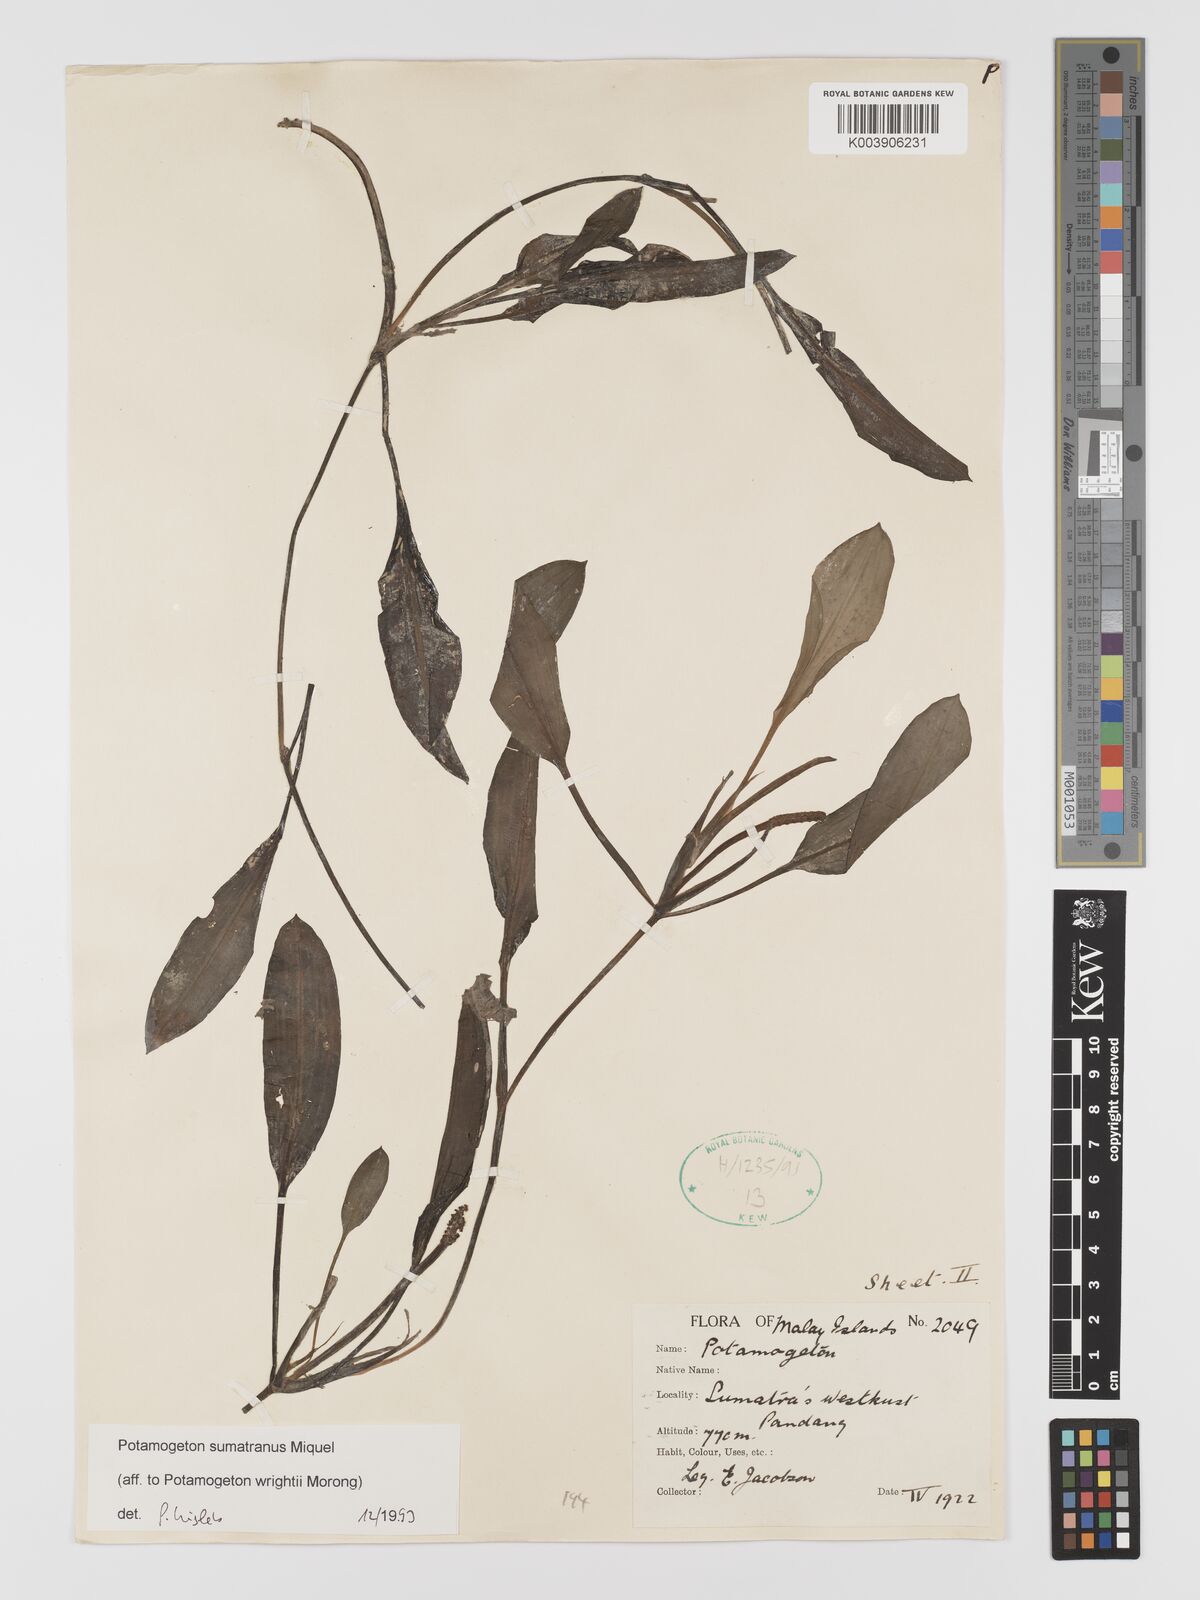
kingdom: Plantae
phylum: Tracheophyta
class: Liliopsida
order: Alismatales
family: Potamogetonaceae
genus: Potamogeton
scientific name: Potamogeton
